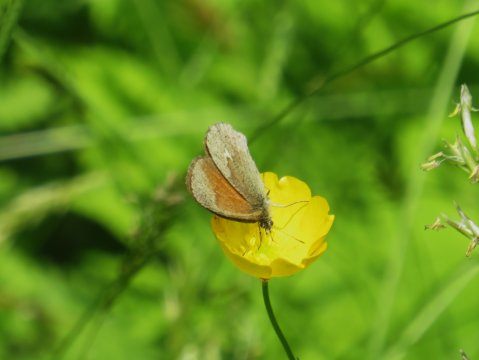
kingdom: Animalia
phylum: Arthropoda
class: Insecta
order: Lepidoptera
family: Nymphalidae
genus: Coenonympha
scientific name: Coenonympha tullia
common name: Large Heath
